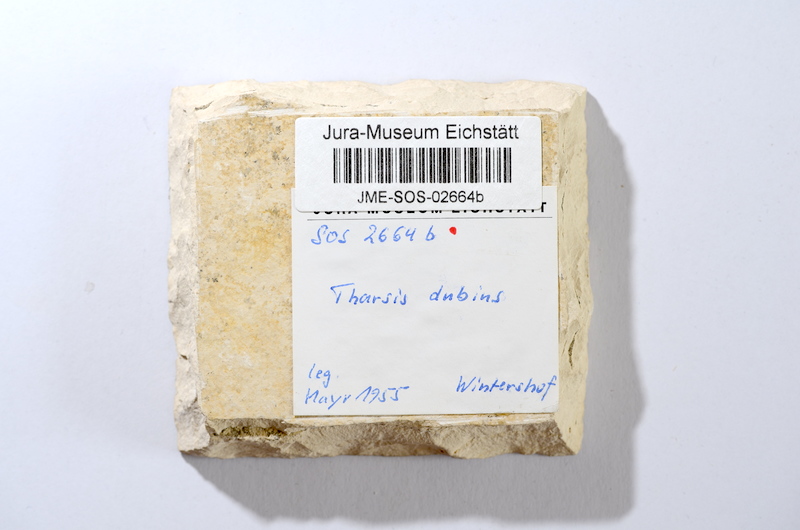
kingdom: Animalia
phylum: Chordata
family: Ascalaboidae
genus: Tharsis
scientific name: Tharsis dubius
